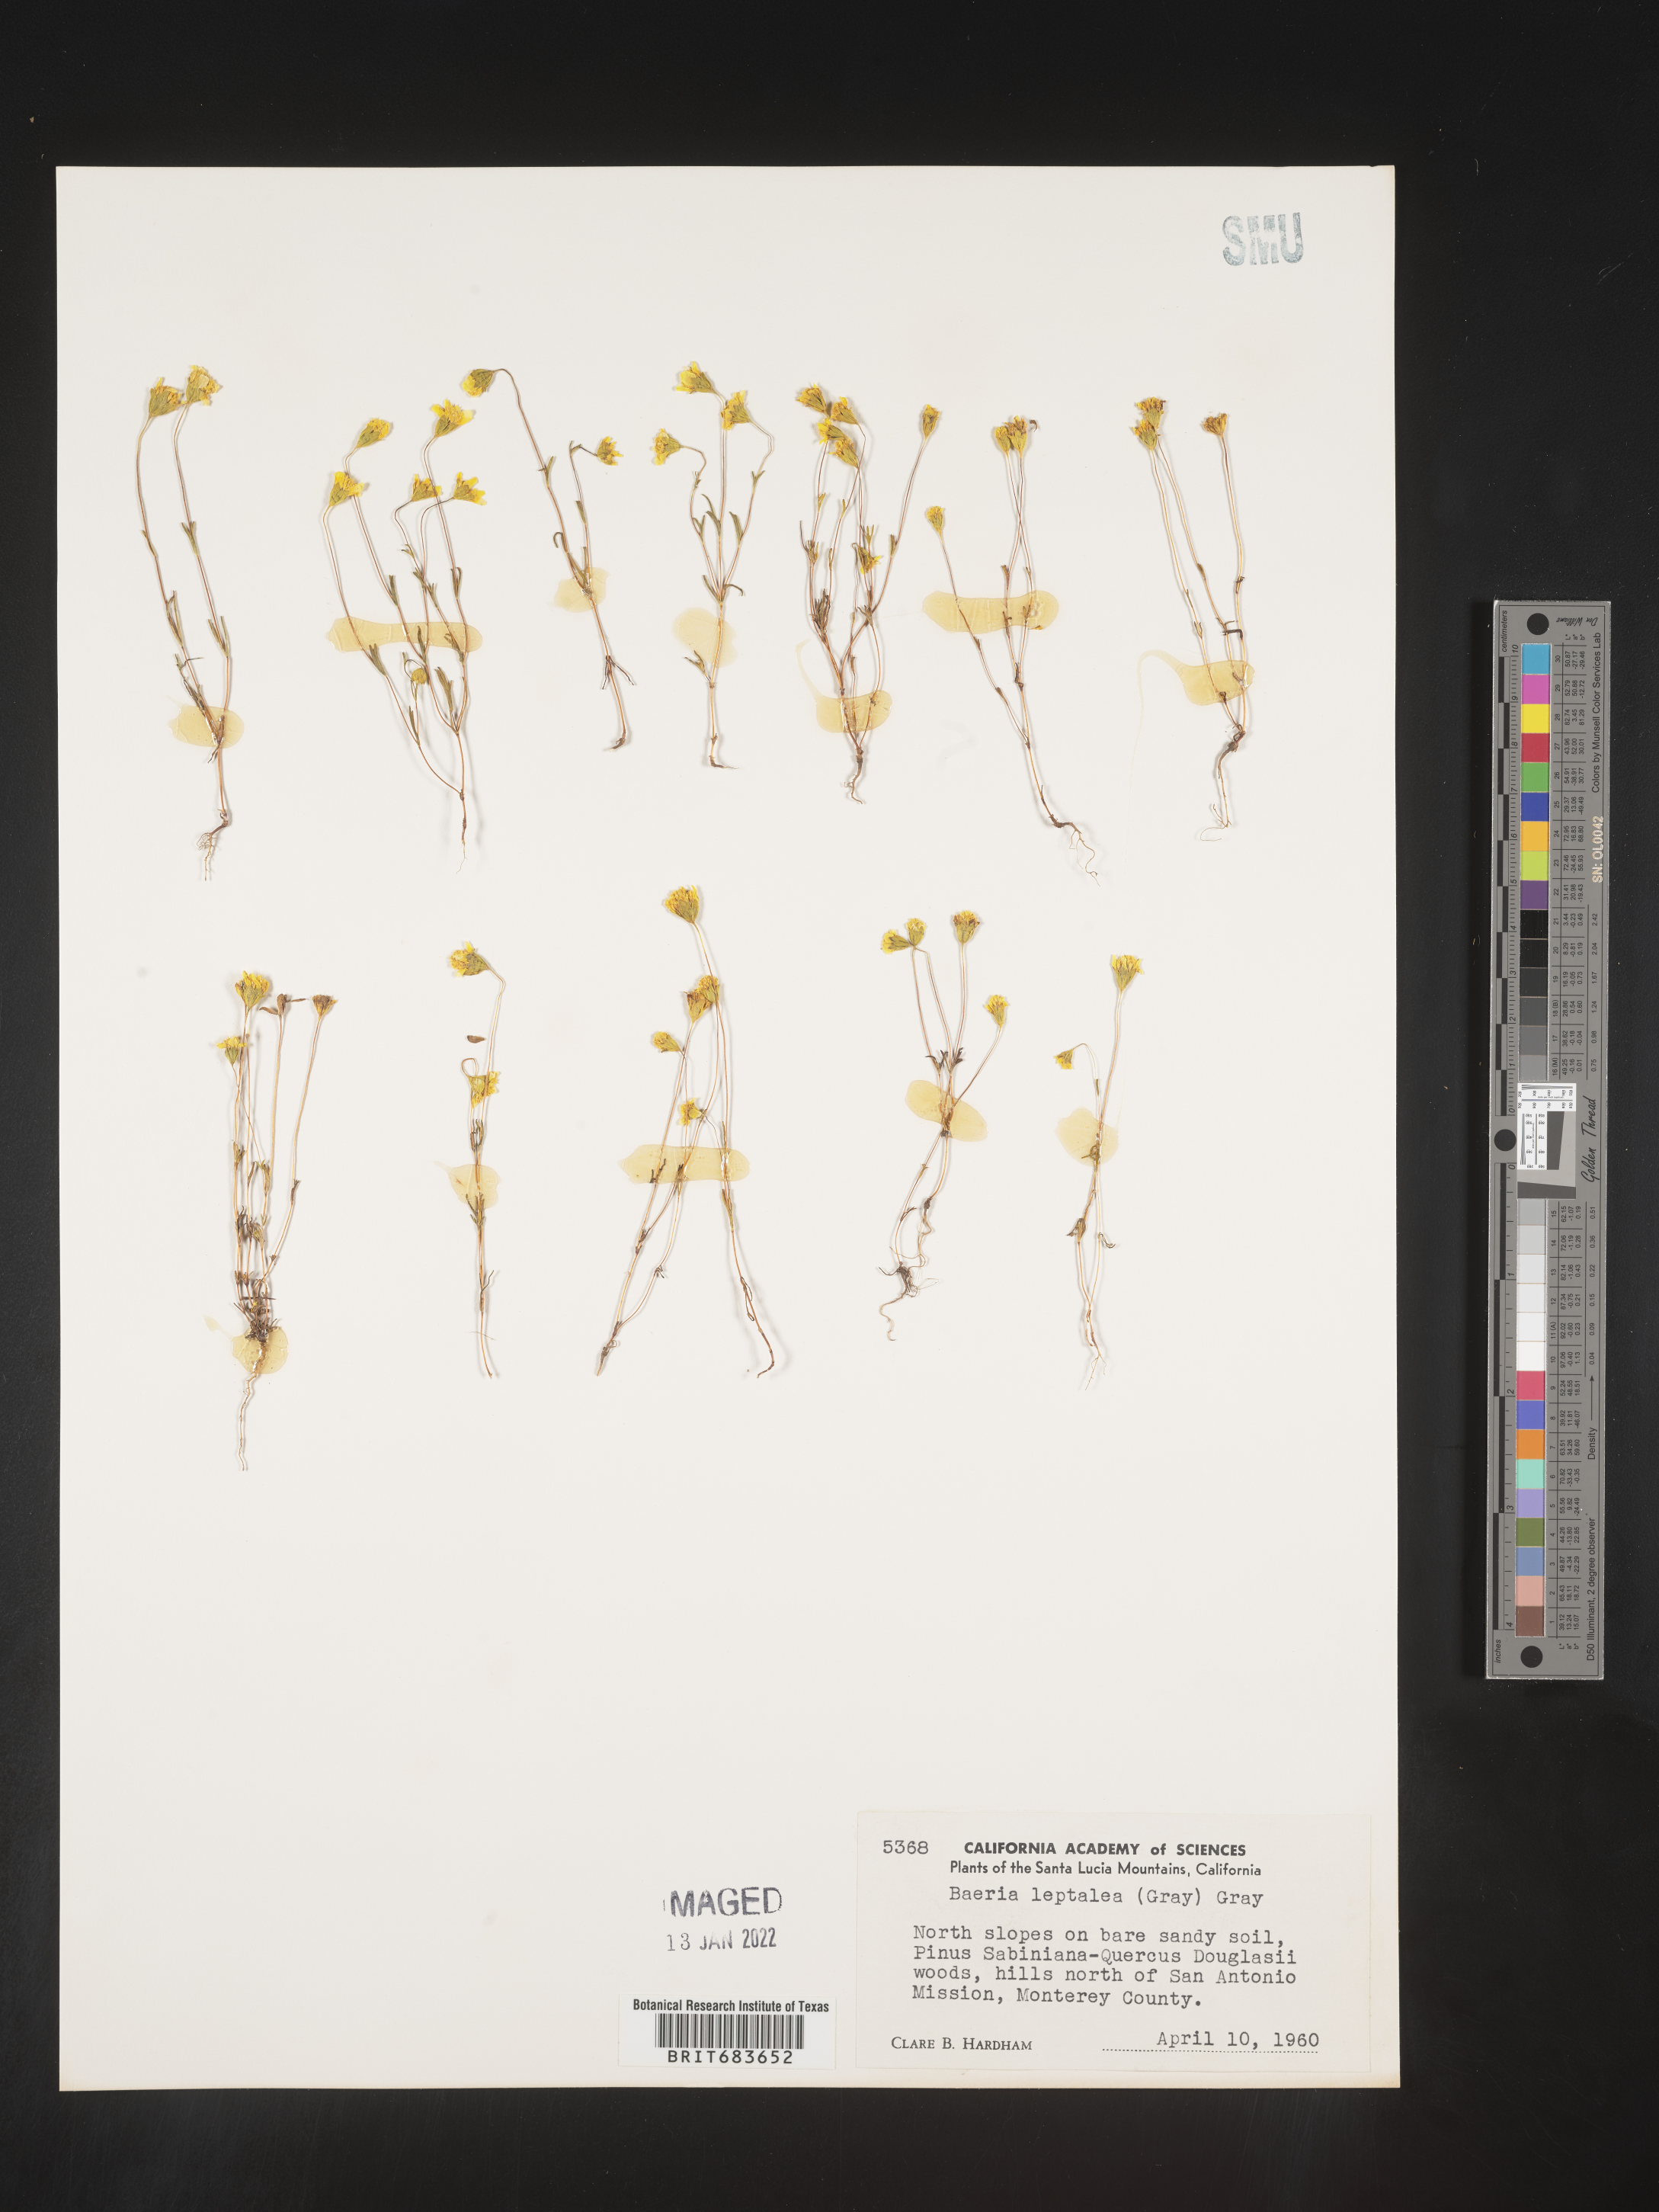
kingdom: Plantae
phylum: Tracheophyta
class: Magnoliopsida
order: Asterales
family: Asteraceae
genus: Lasthenia
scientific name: Lasthenia
